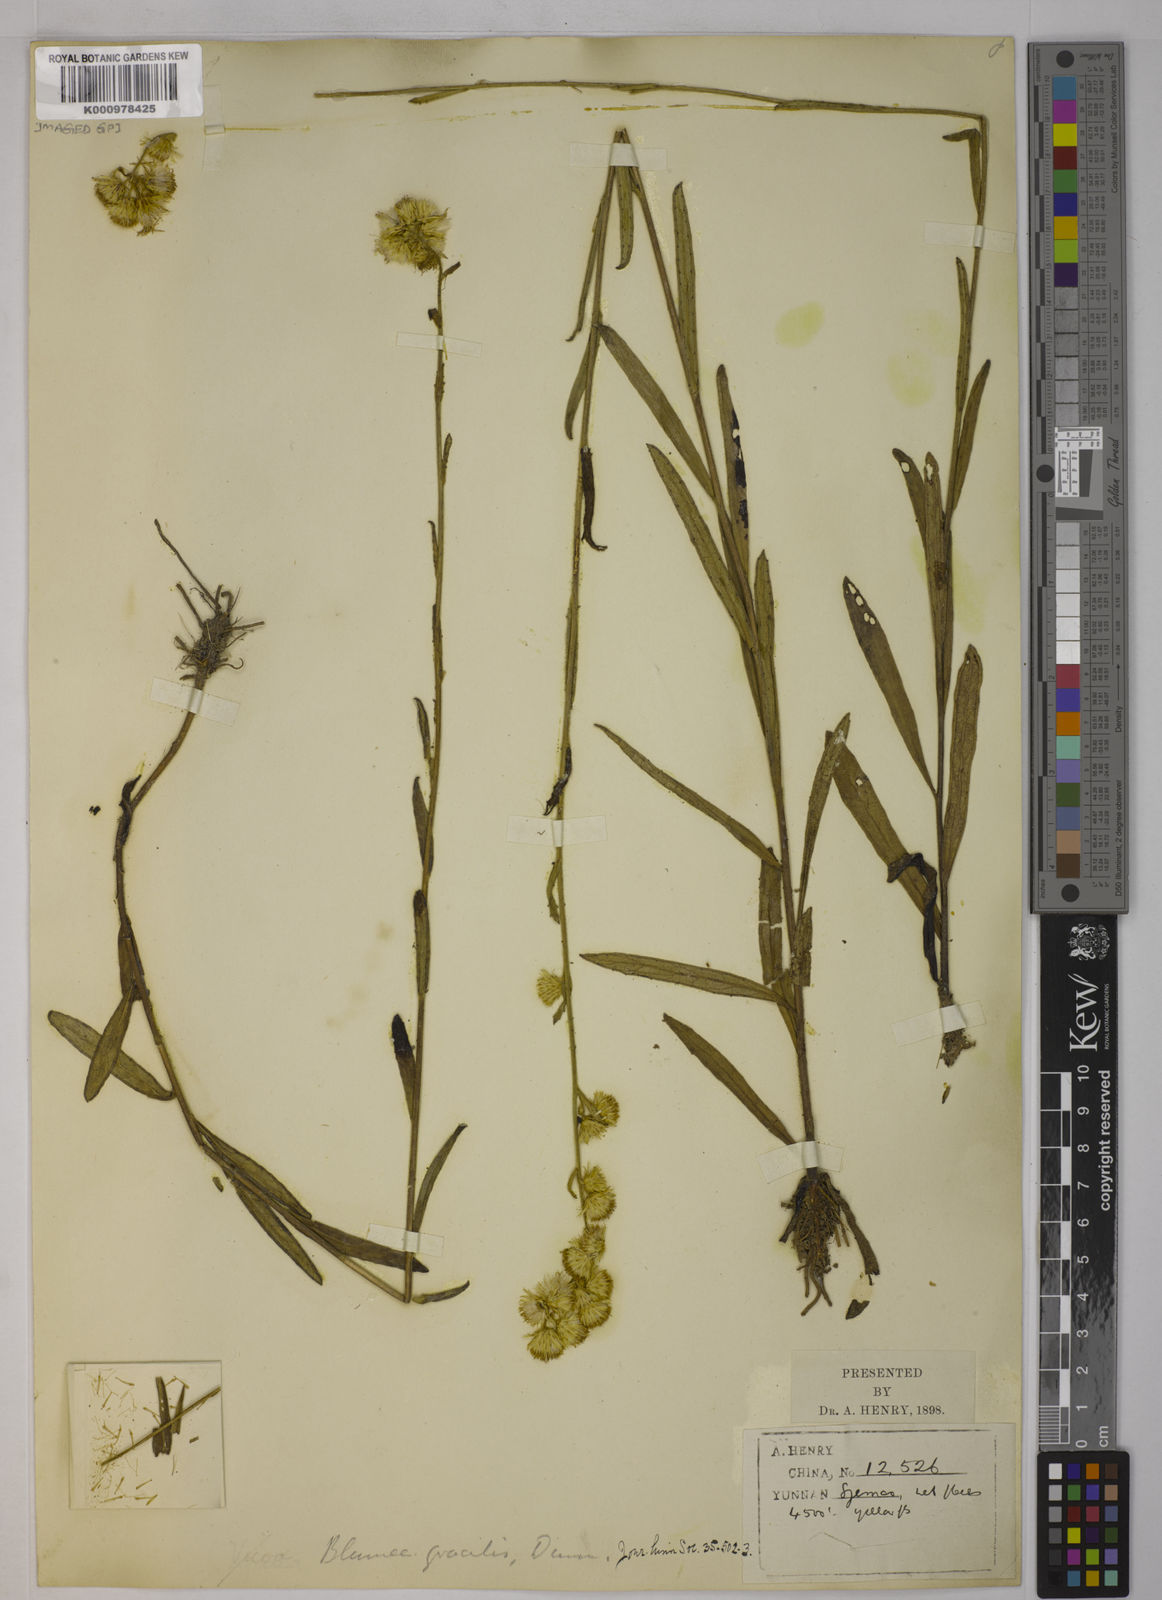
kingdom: Plantae
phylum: Tracheophyta
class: Magnoliopsida
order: Asterales
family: Asteraceae
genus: Blumea
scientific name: Blumea tenuifolia
